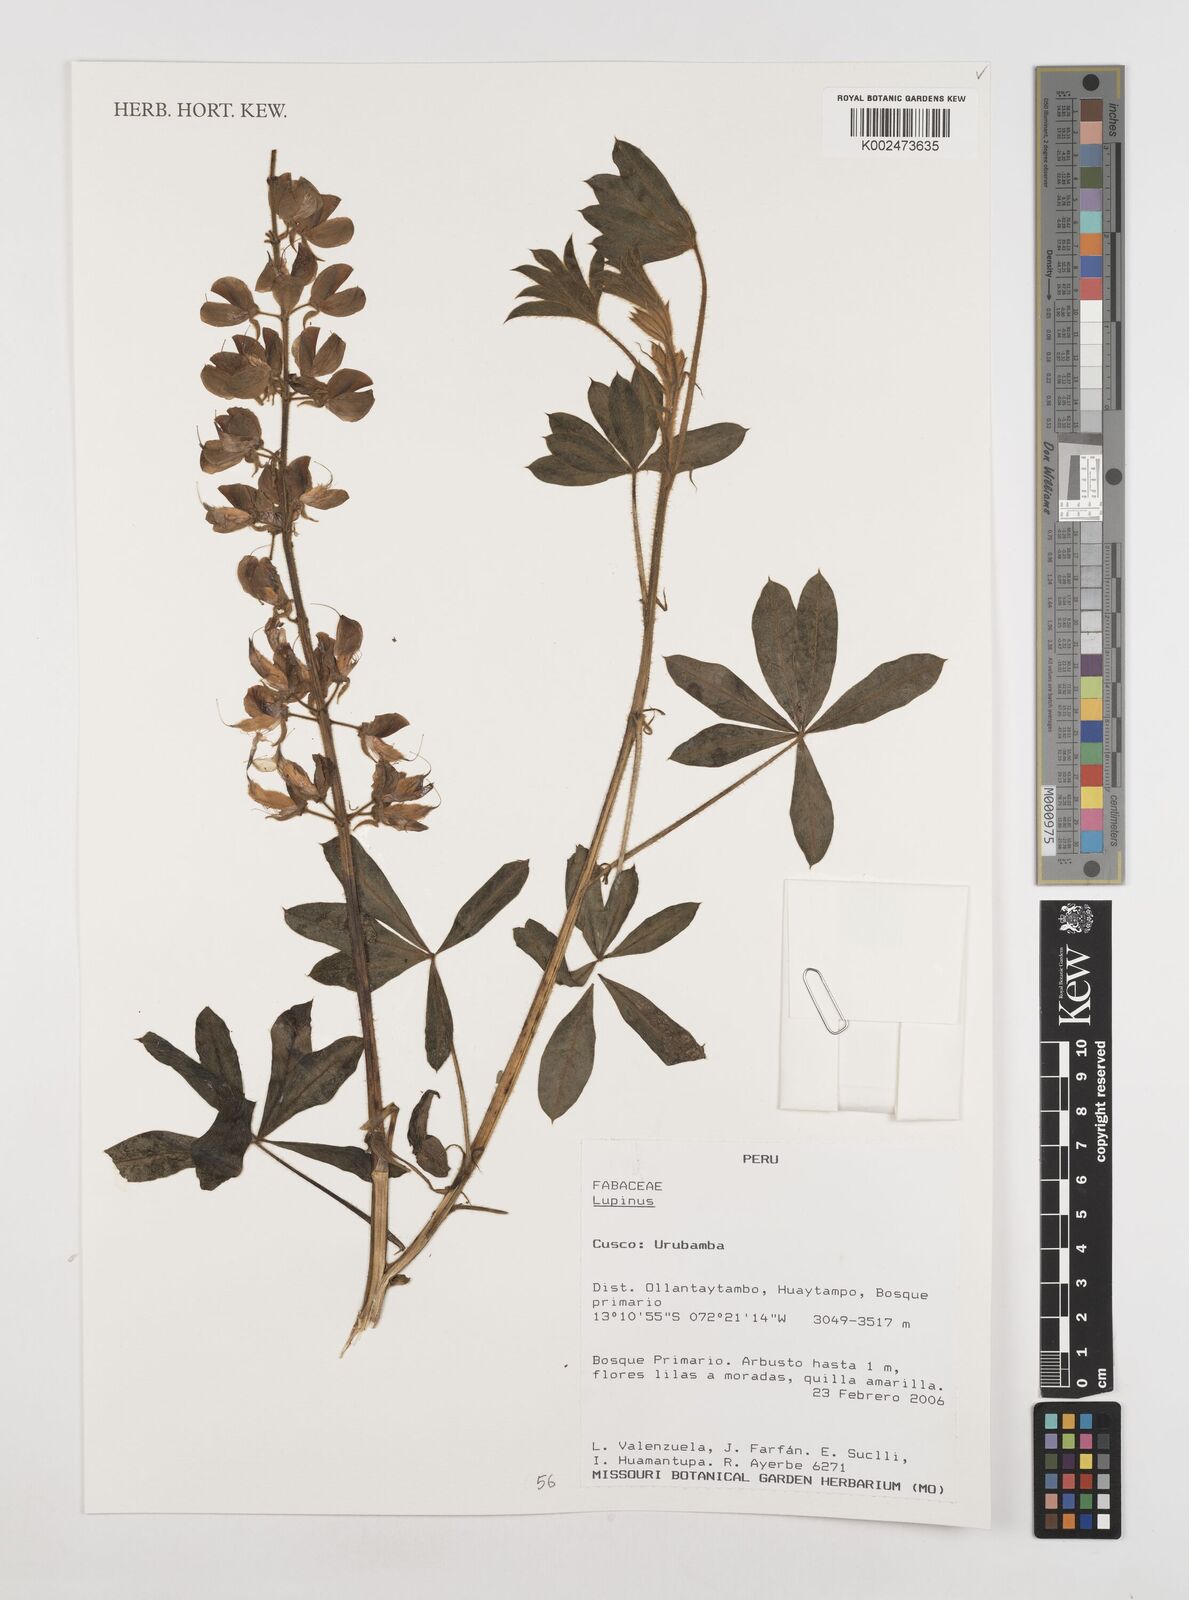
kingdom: Plantae
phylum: Tracheophyta
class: Magnoliopsida
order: Fabales
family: Fabaceae
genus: Lupinus
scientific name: Lupinus
